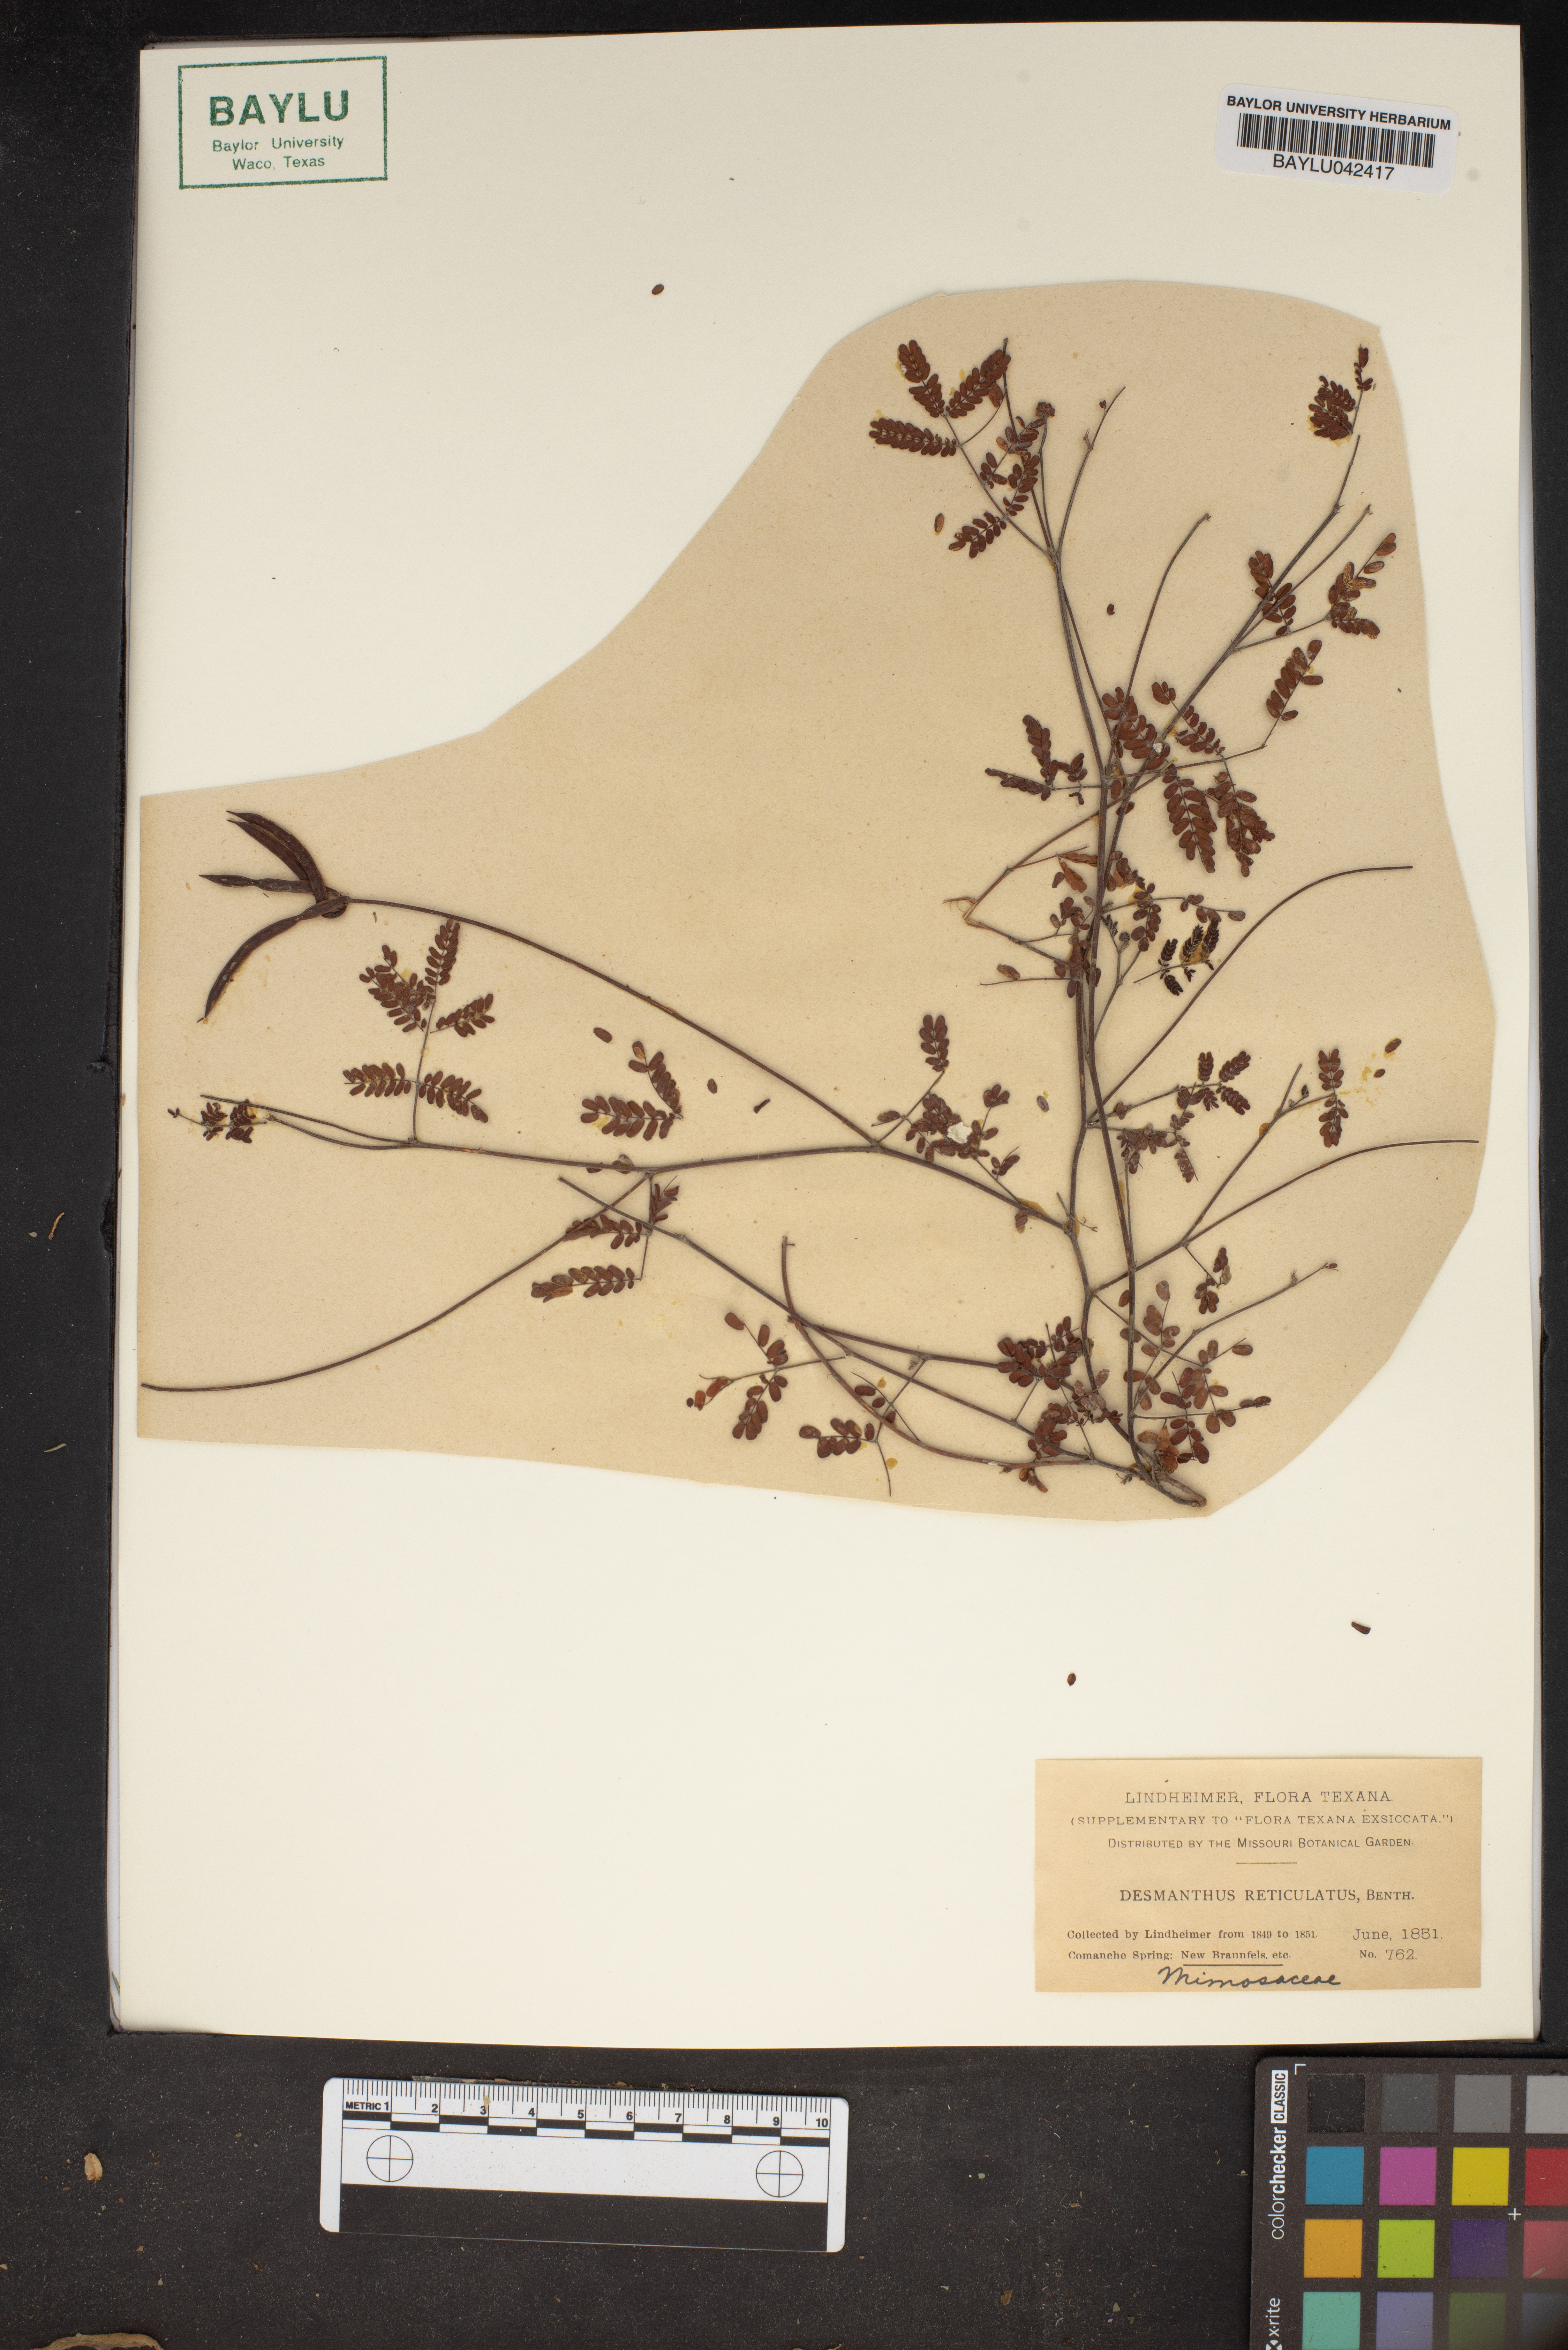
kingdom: Plantae
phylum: Tracheophyta
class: Magnoliopsida
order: Fabales
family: Fabaceae
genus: Desmanthus
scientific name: Desmanthus reticulatus
